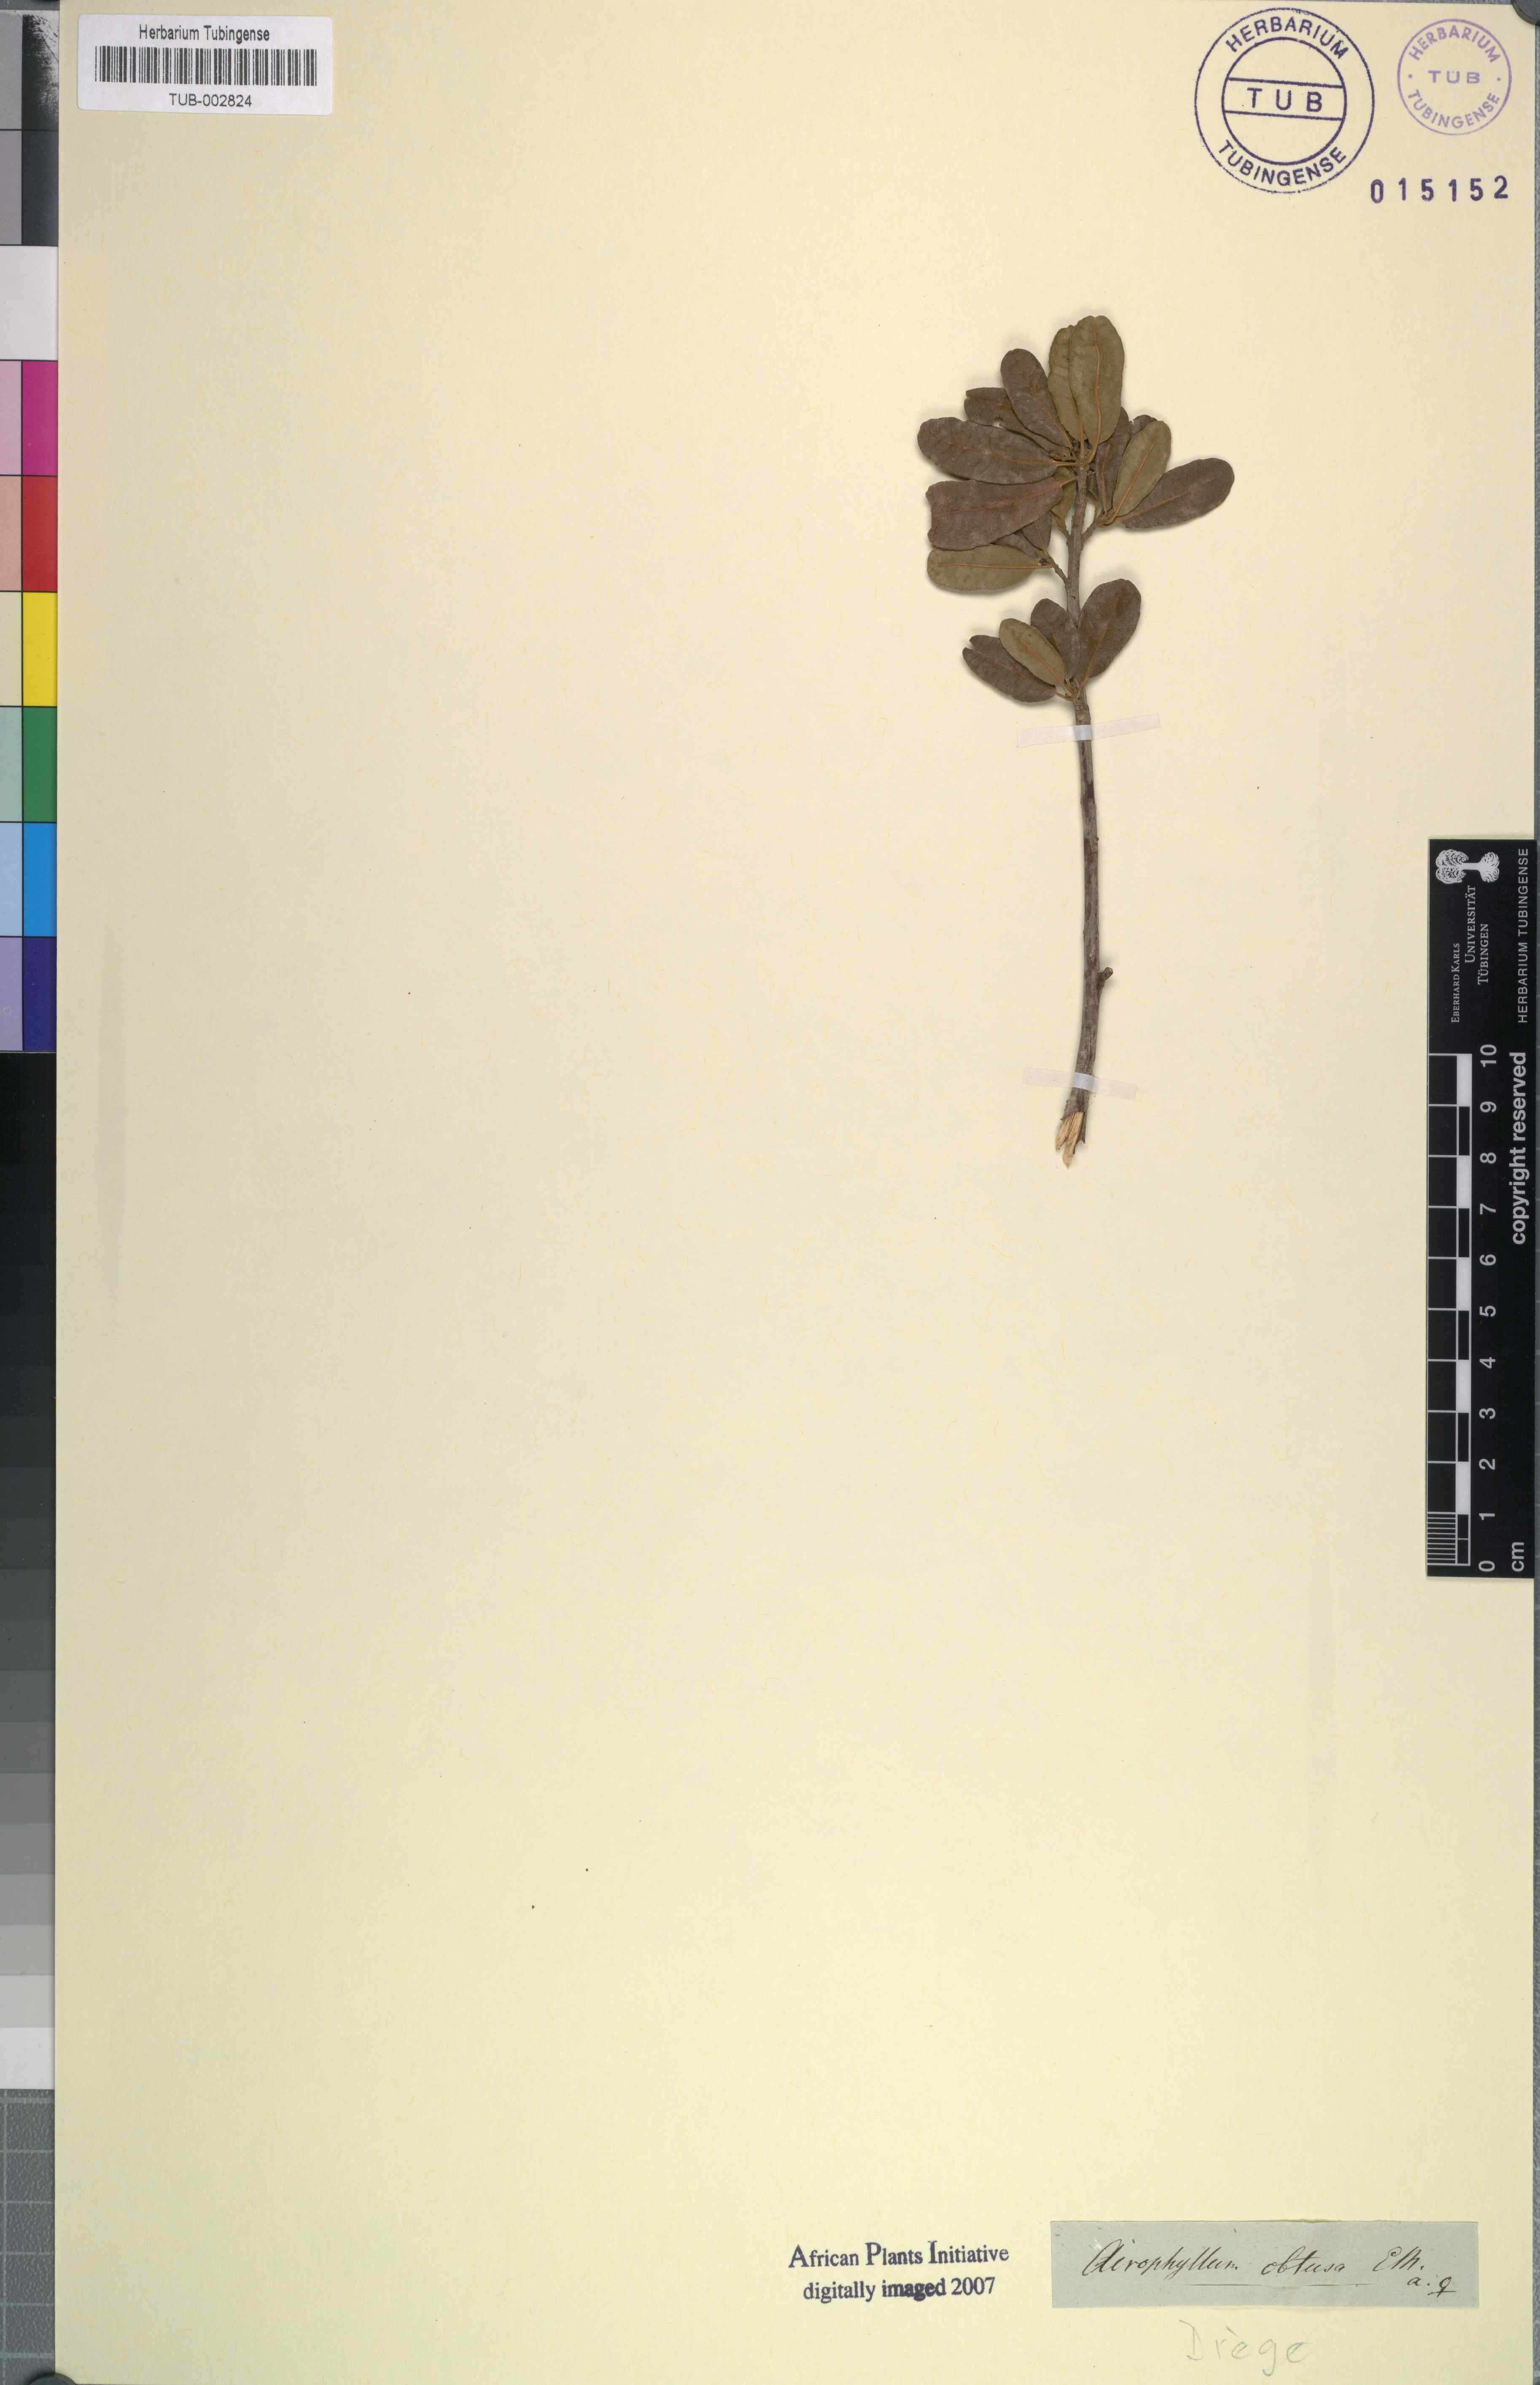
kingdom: Plantae
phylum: Tracheophyta
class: Magnoliopsida
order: Malpighiales
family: Achariaceae
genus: Kiggelaria
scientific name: Kiggelaria africana
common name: Wild peach
